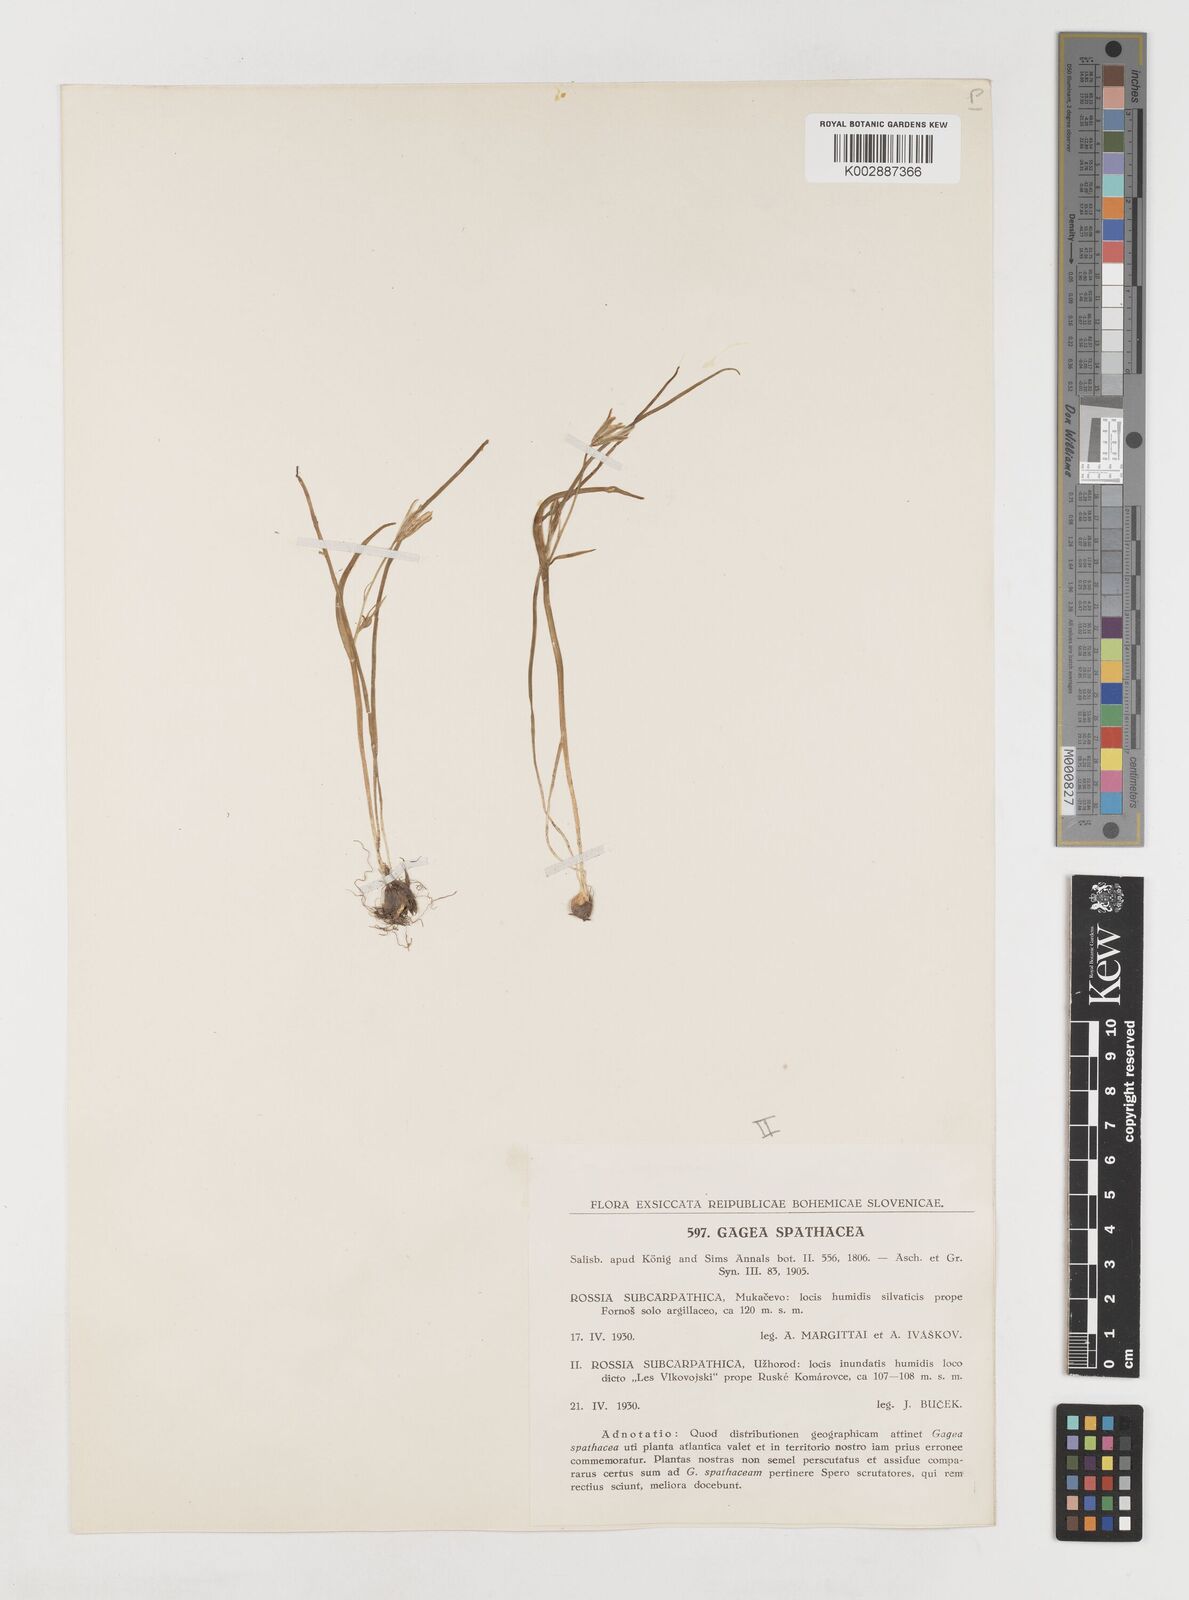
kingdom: Plantae
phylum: Tracheophyta
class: Liliopsida
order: Liliales
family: Liliaceae
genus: Gagea
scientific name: Gagea spathacea
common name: Belgian gagea
